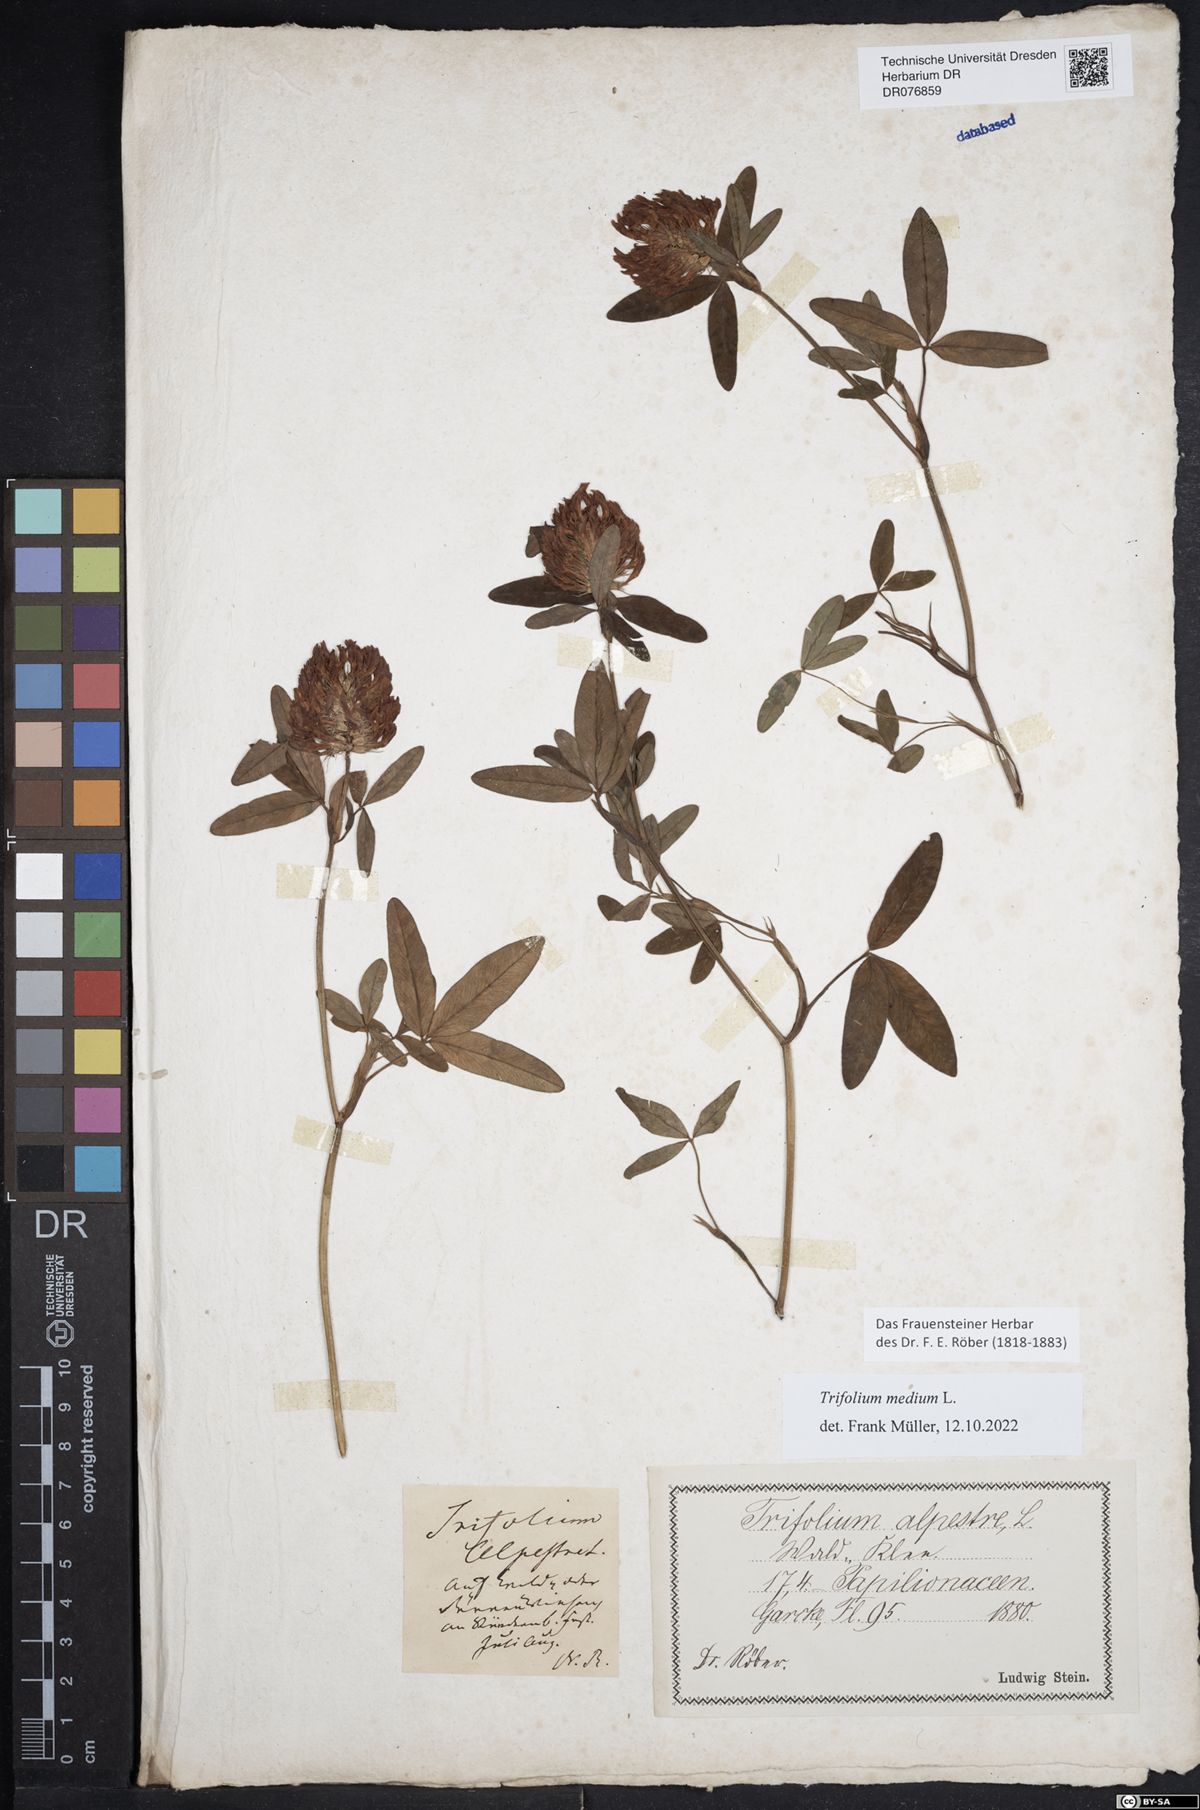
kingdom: Plantae
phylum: Tracheophyta
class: Magnoliopsida
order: Fabales
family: Fabaceae
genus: Trifolium
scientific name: Trifolium medium
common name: Zigzag clover
